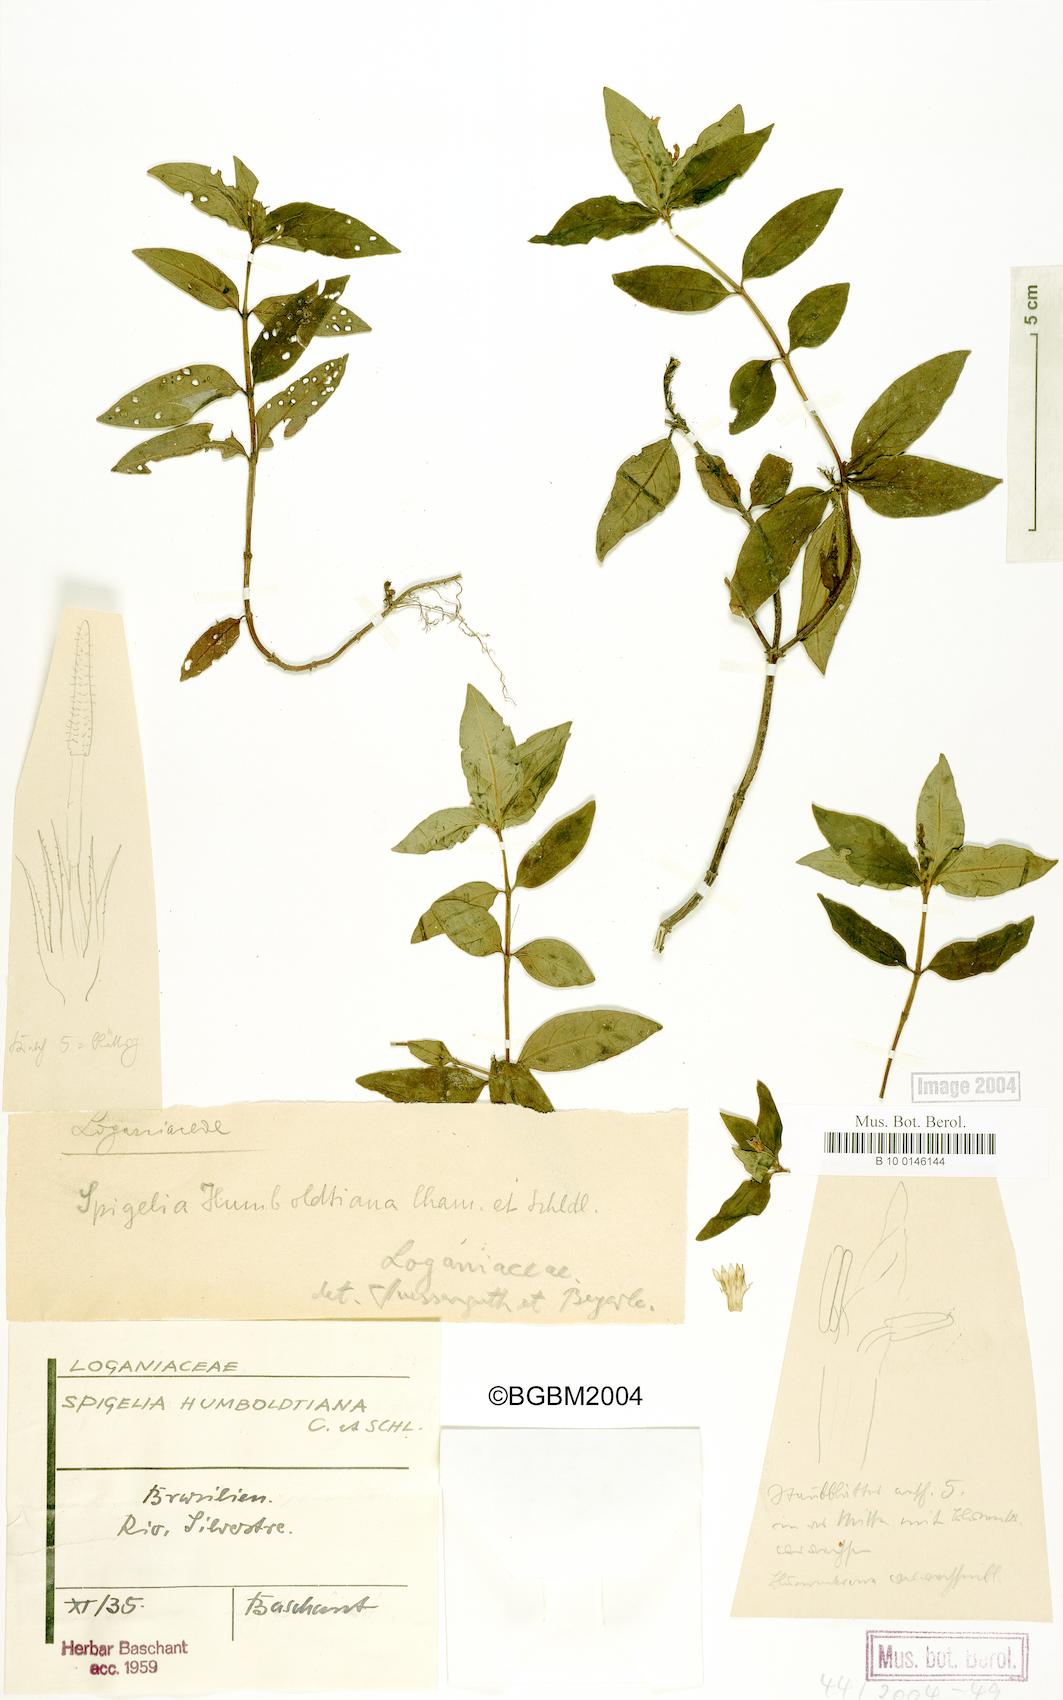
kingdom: Plantae
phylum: Tracheophyta
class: Magnoliopsida
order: Gentianales
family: Loganiaceae
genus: Spigelia
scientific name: Spigelia humboldtiana
